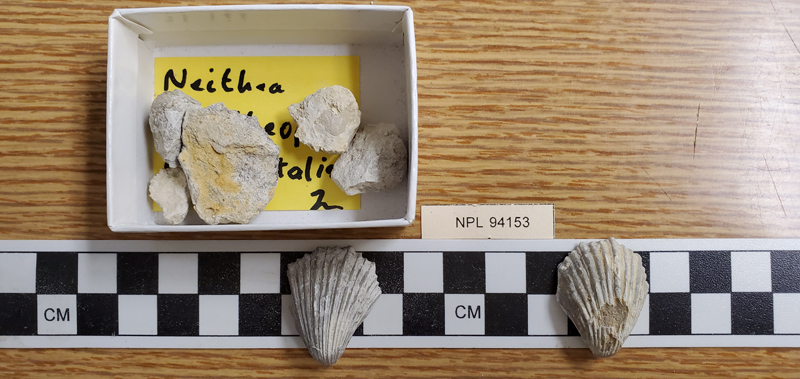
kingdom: Animalia
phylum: Mollusca
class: Bivalvia
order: Pectinida
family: Neitheidae
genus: Neithea
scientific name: Neithea occidentalis
